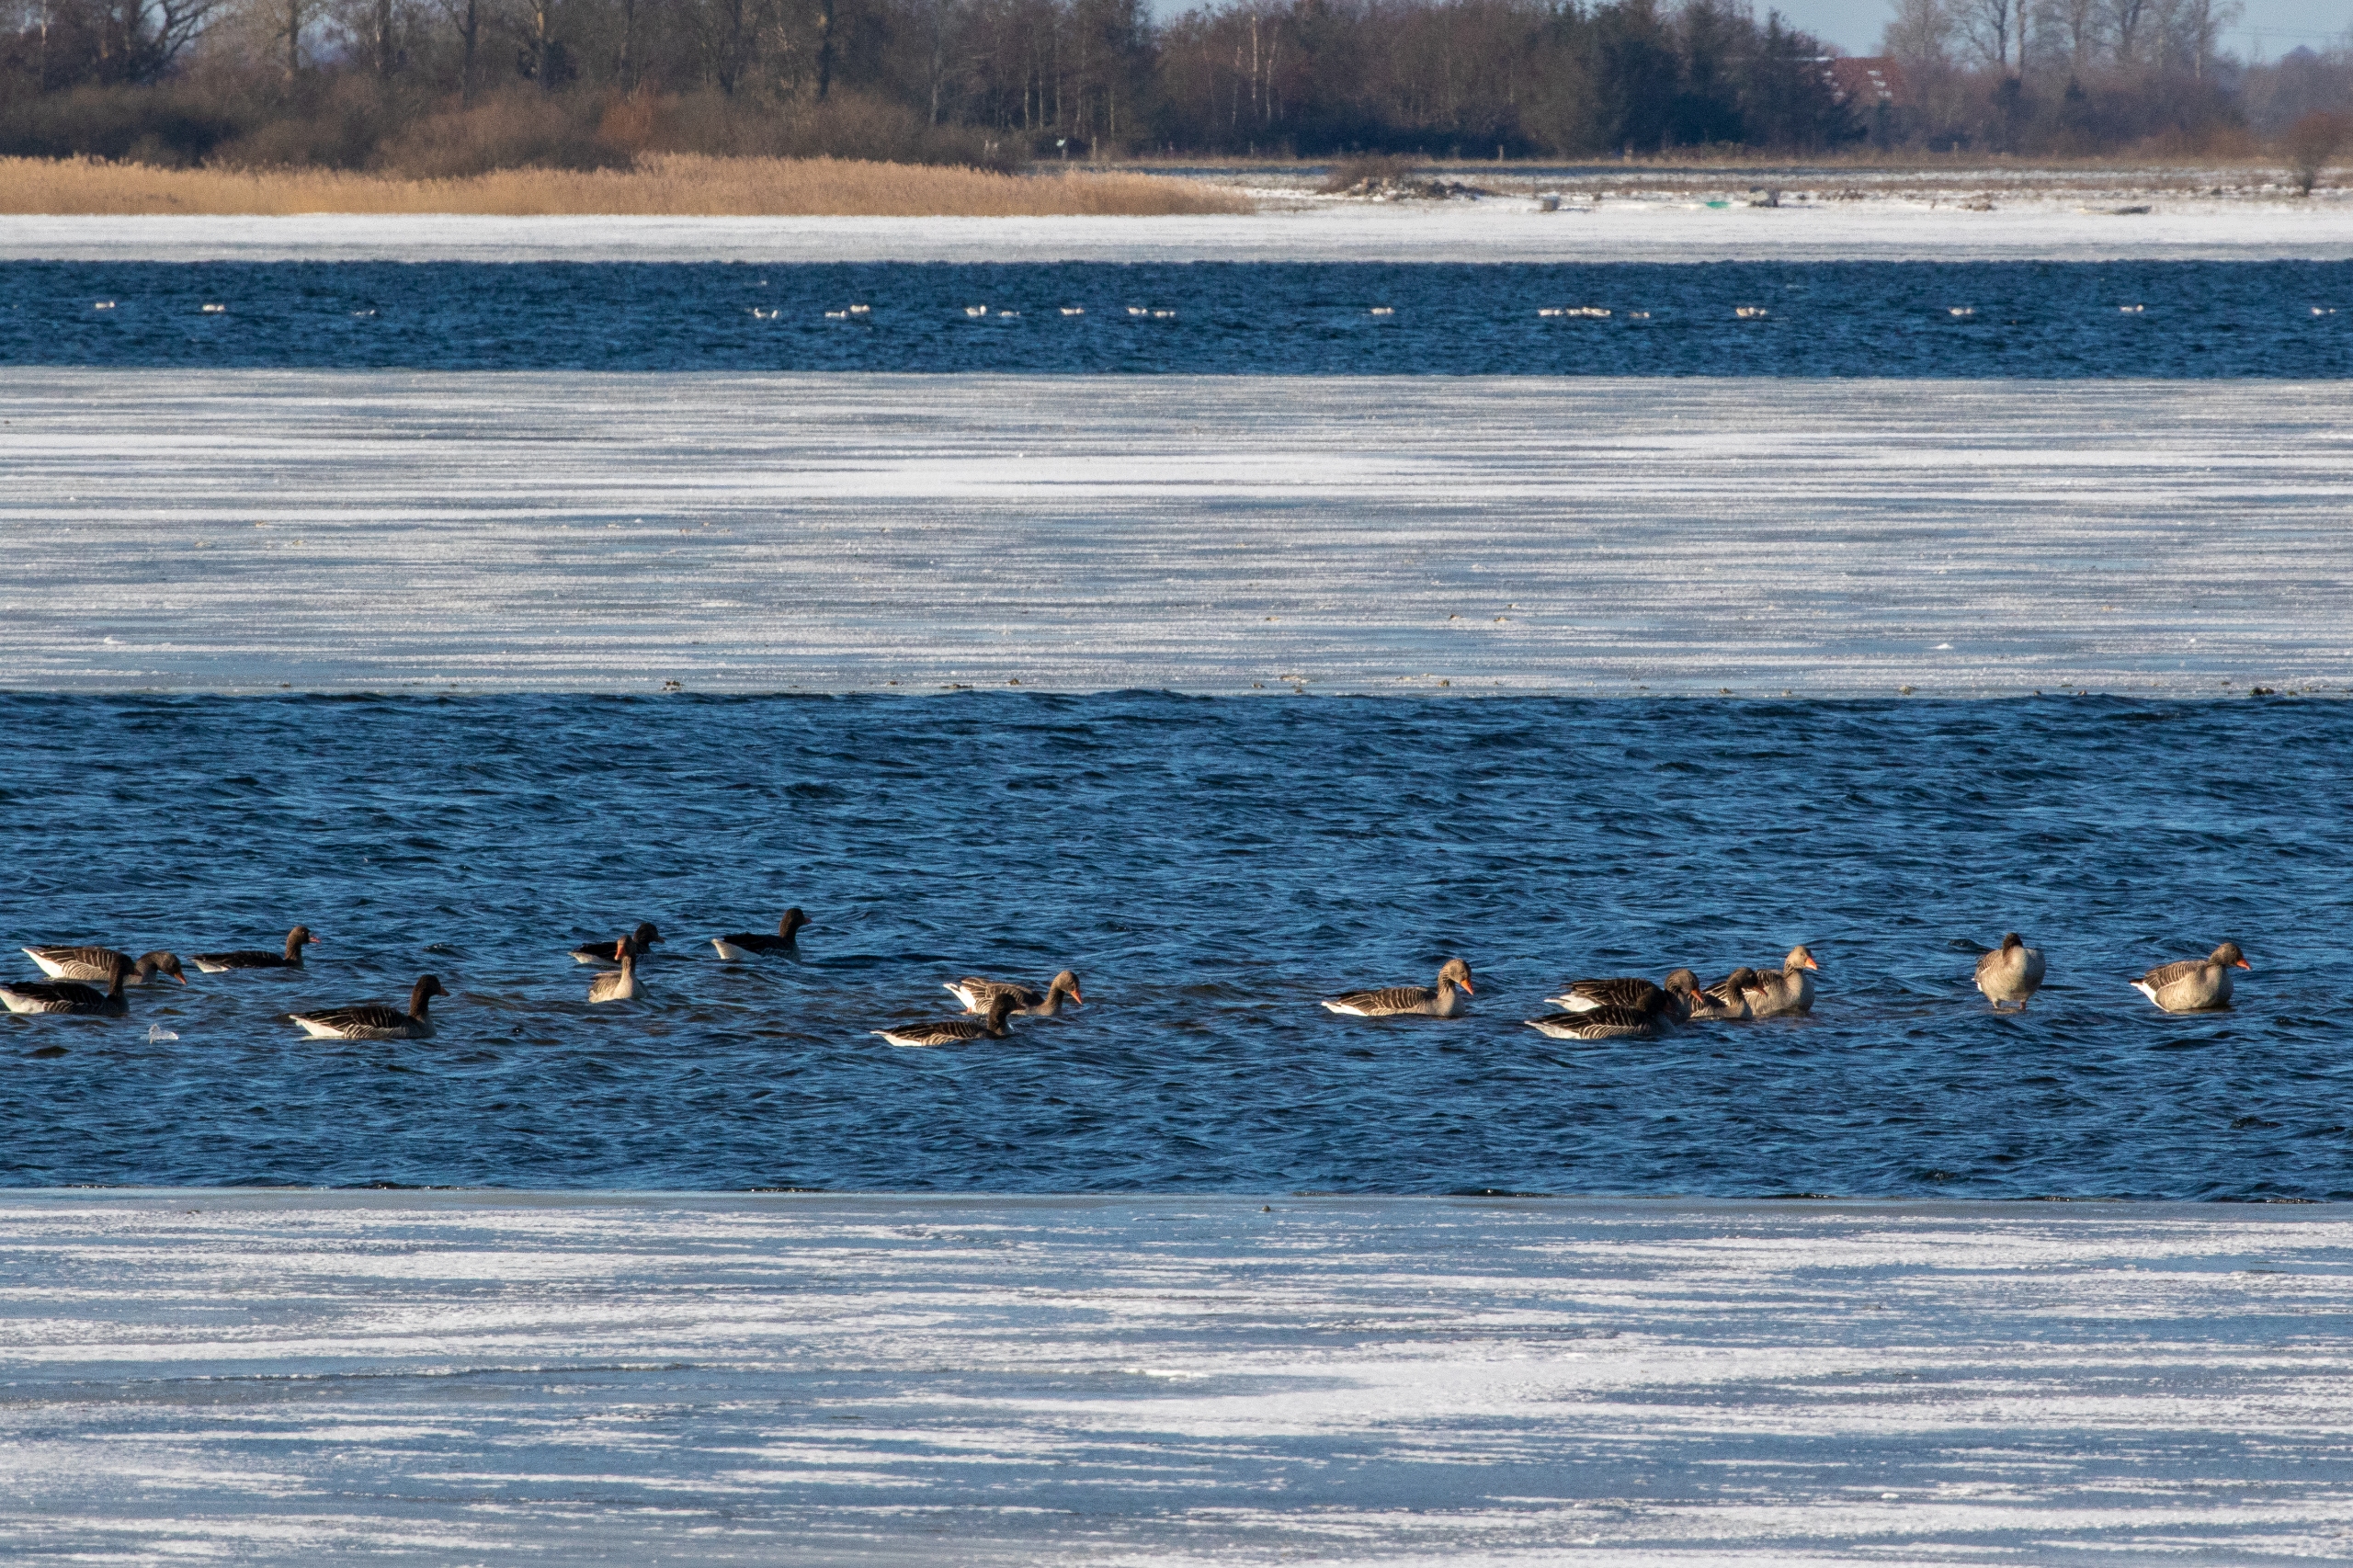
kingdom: Animalia
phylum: Chordata
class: Aves
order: Anseriformes
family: Anatidae
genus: Anser
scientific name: Anser anser
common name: Grågås
